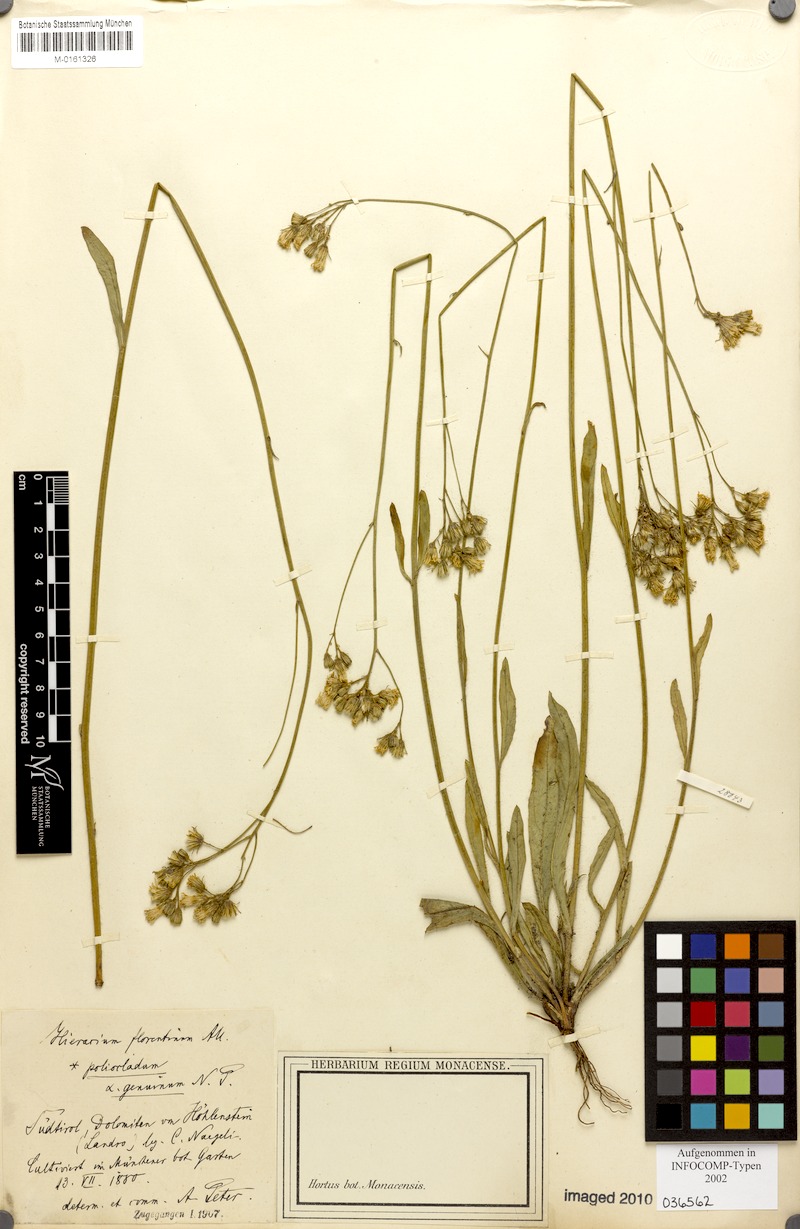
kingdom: Plantae
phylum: Tracheophyta
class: Magnoliopsida
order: Asterales
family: Asteraceae
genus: Pilosella
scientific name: Pilosella piloselloides
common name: Glaucous king-devil
